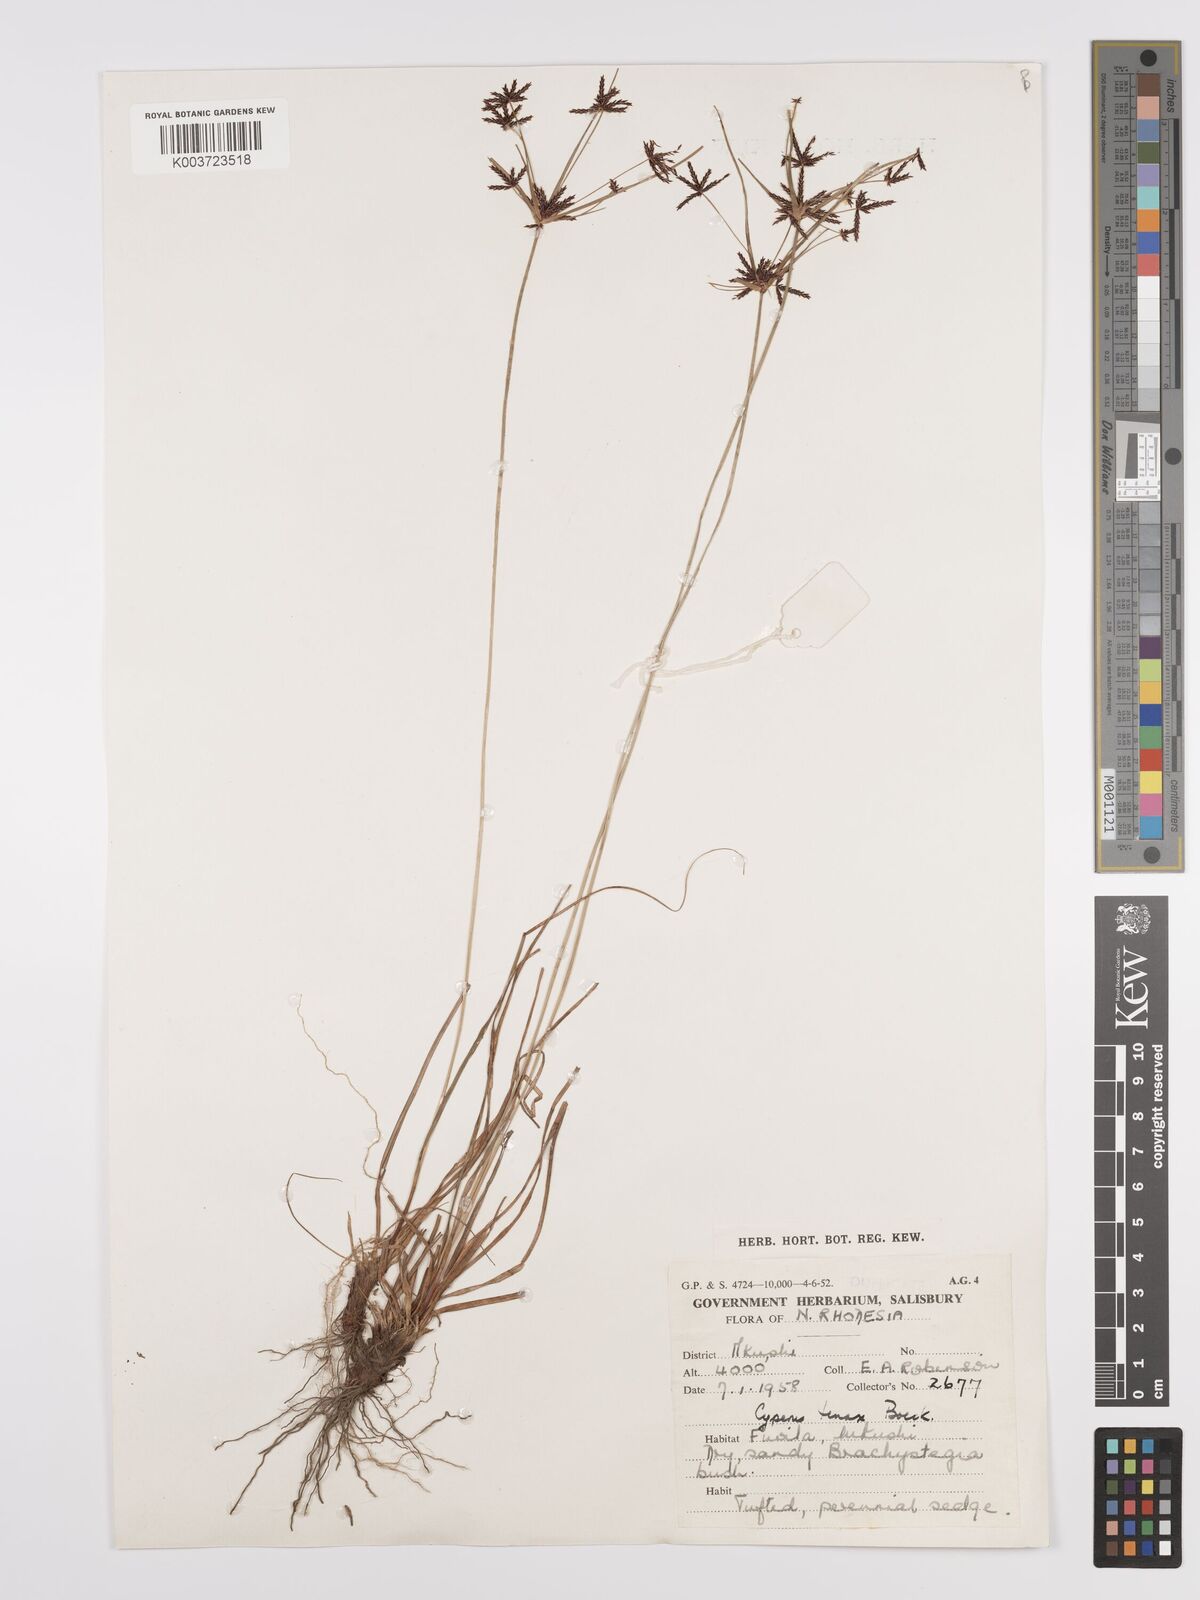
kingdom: Plantae
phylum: Tracheophyta
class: Liliopsida
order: Poales
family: Cyperaceae
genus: Cyperus
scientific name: Cyperus tenax
